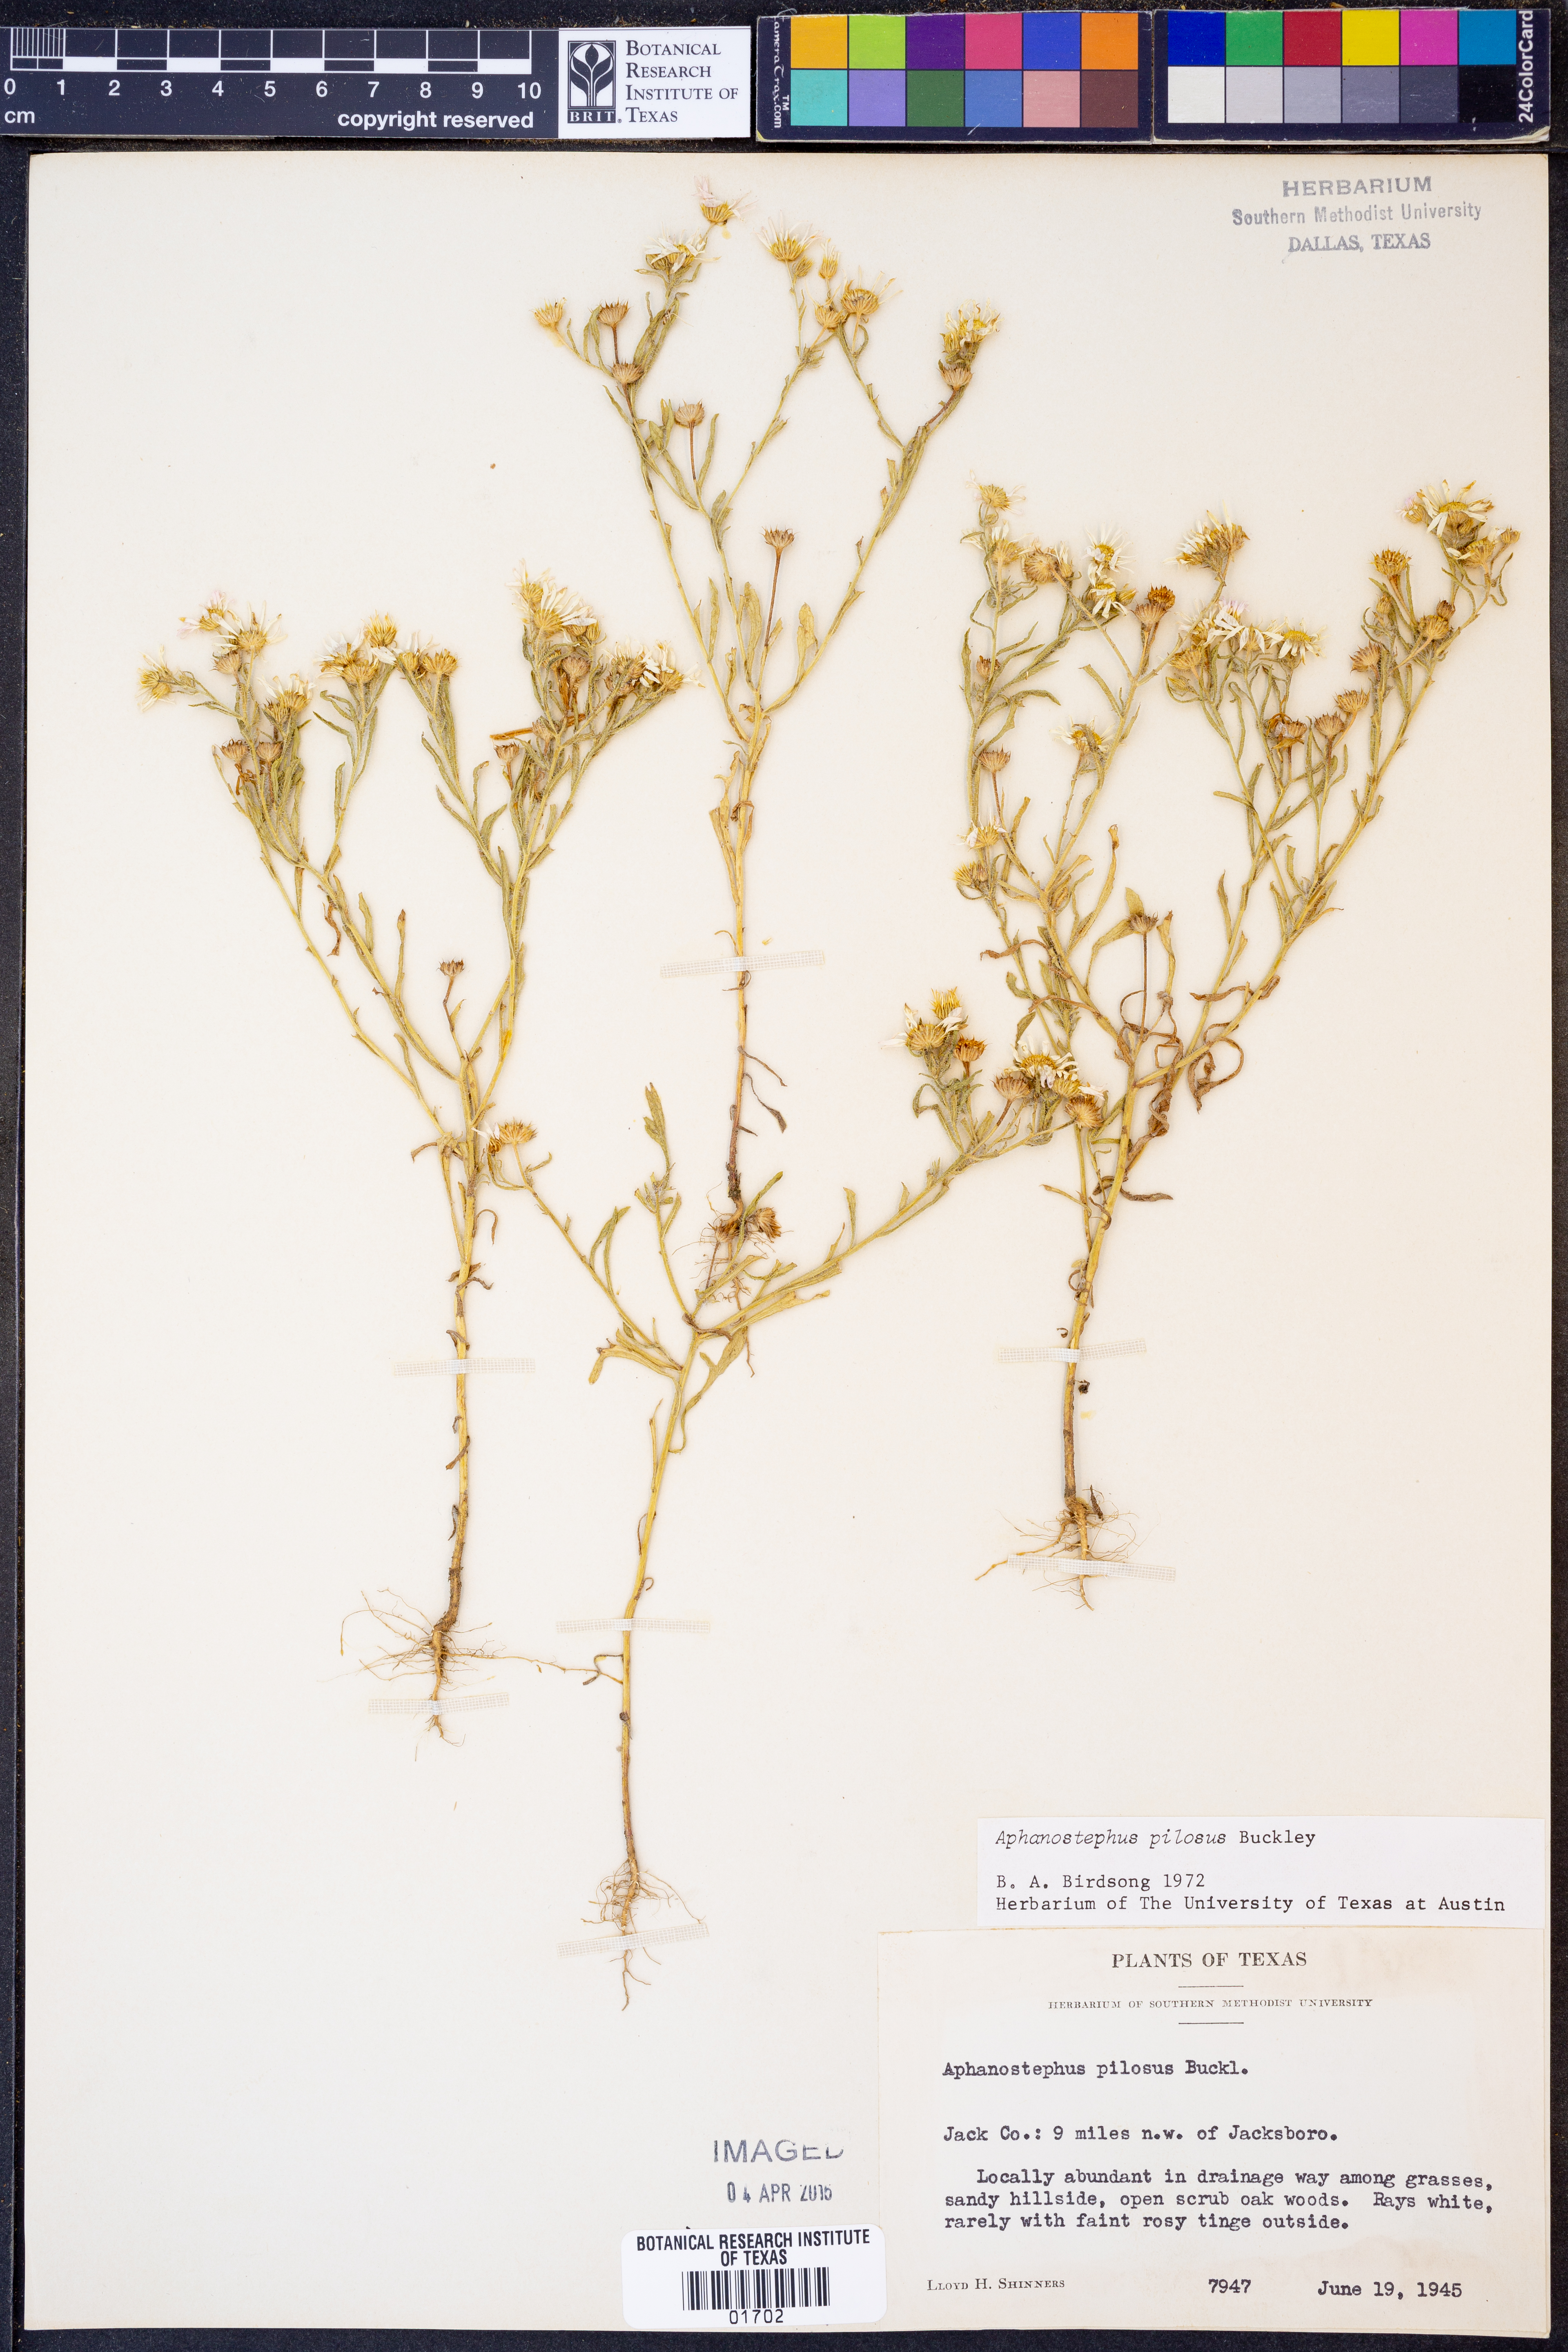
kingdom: Plantae
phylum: Tracheophyta
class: Magnoliopsida
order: Asterales
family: Asteraceae
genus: Aphanostephus
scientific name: Aphanostephus pilosus
